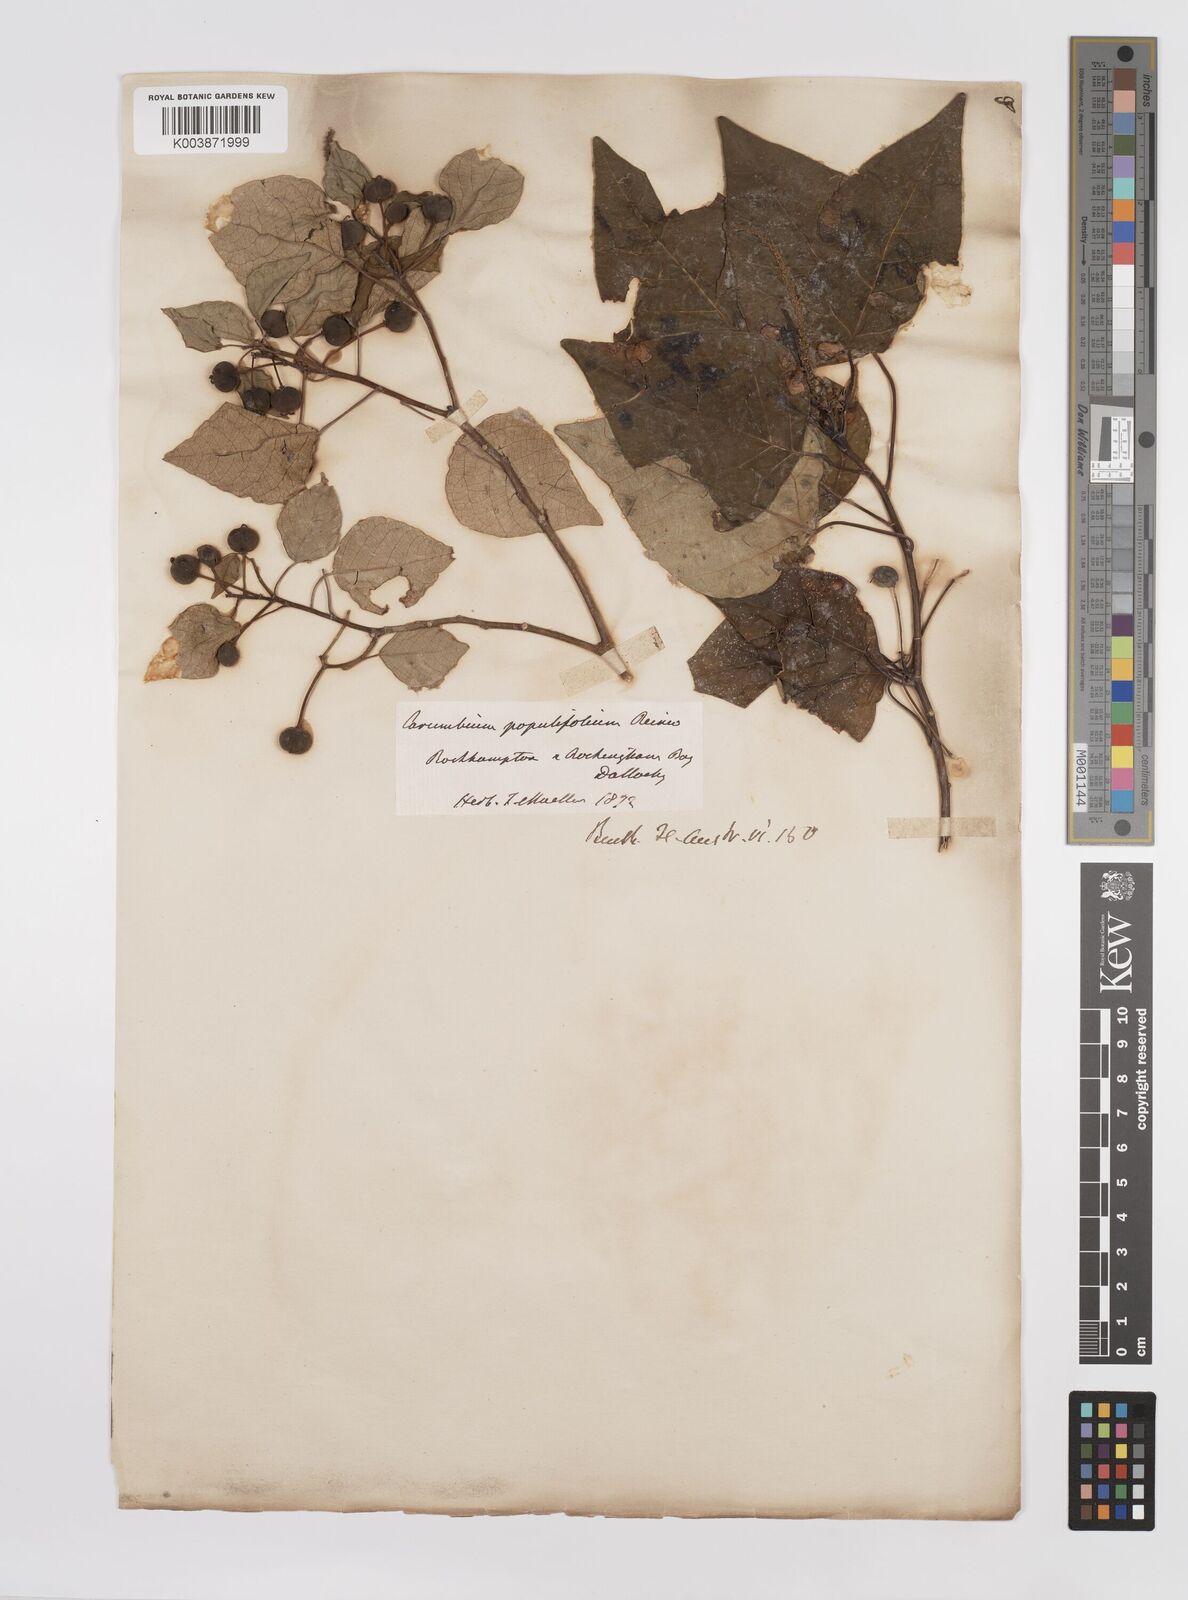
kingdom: Plantae
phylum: Tracheophyta
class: Magnoliopsida
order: Malpighiales
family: Euphorbiaceae
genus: Homalanthus
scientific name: Homalanthus populifolius
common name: Queensland poplar
